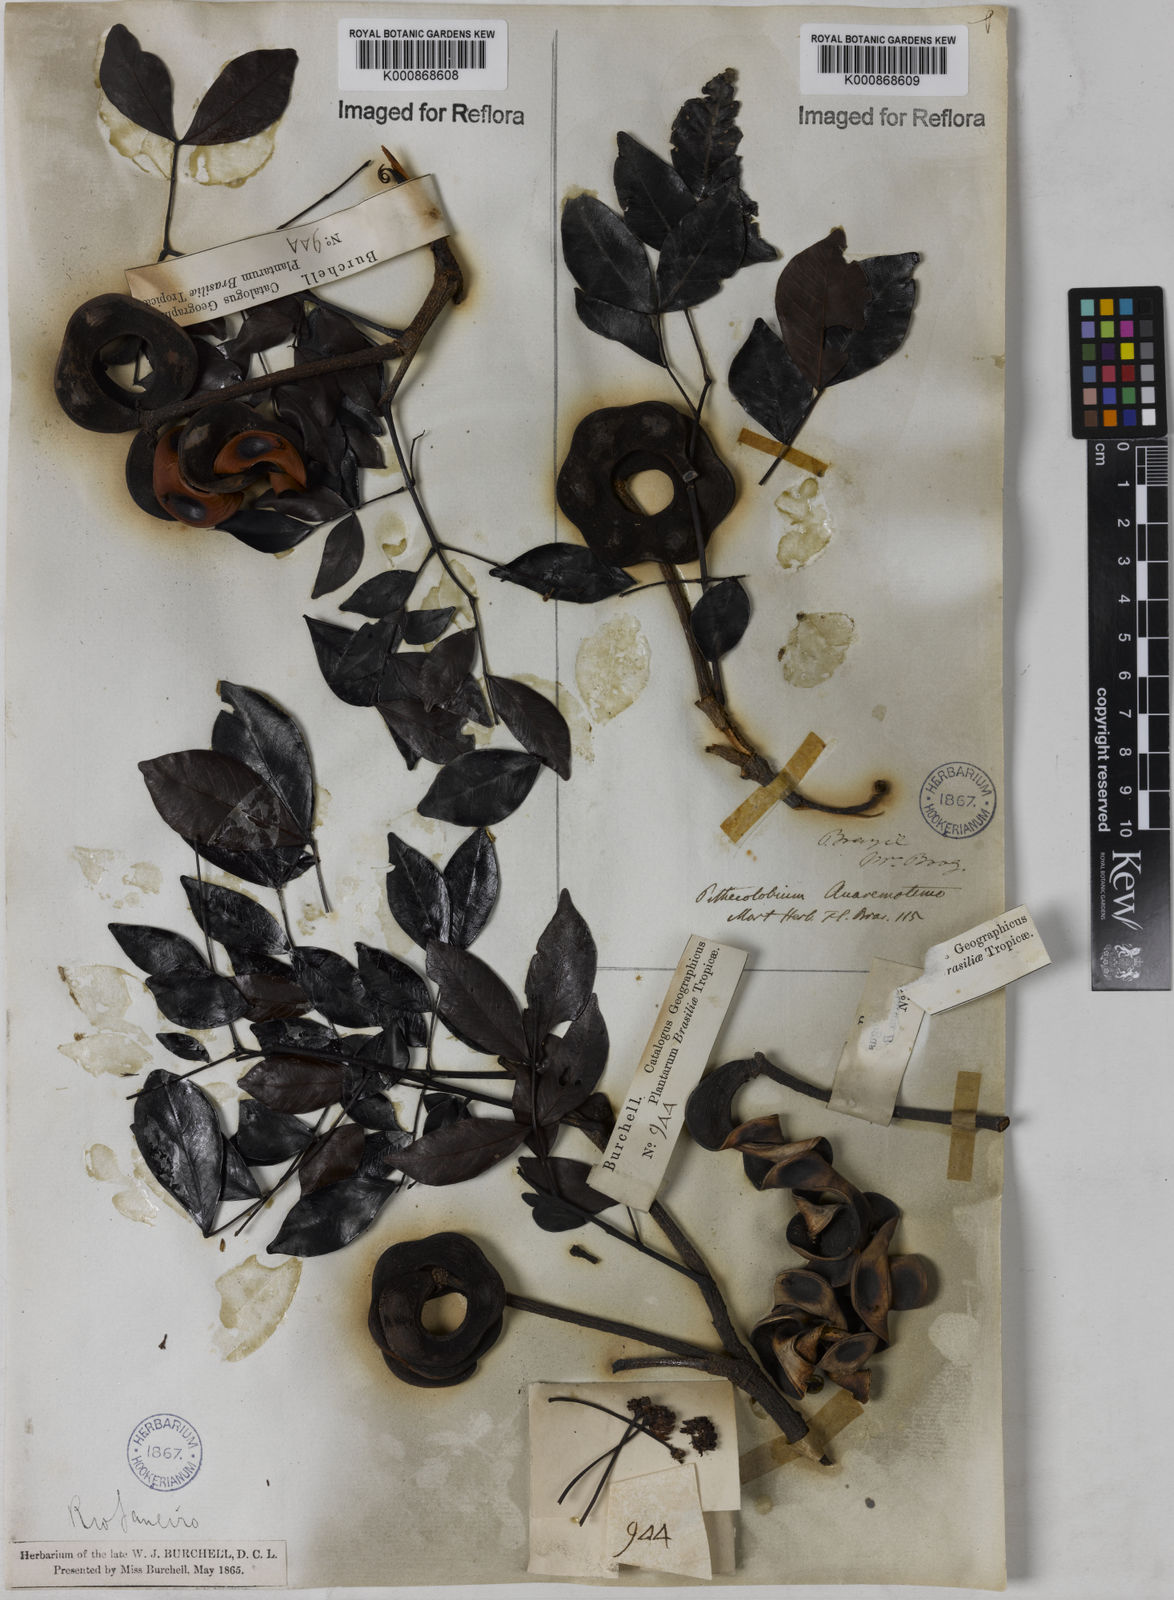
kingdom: Plantae
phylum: Tracheophyta
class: Magnoliopsida
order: Fabales
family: Fabaceae
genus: Abarema
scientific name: Abarema
